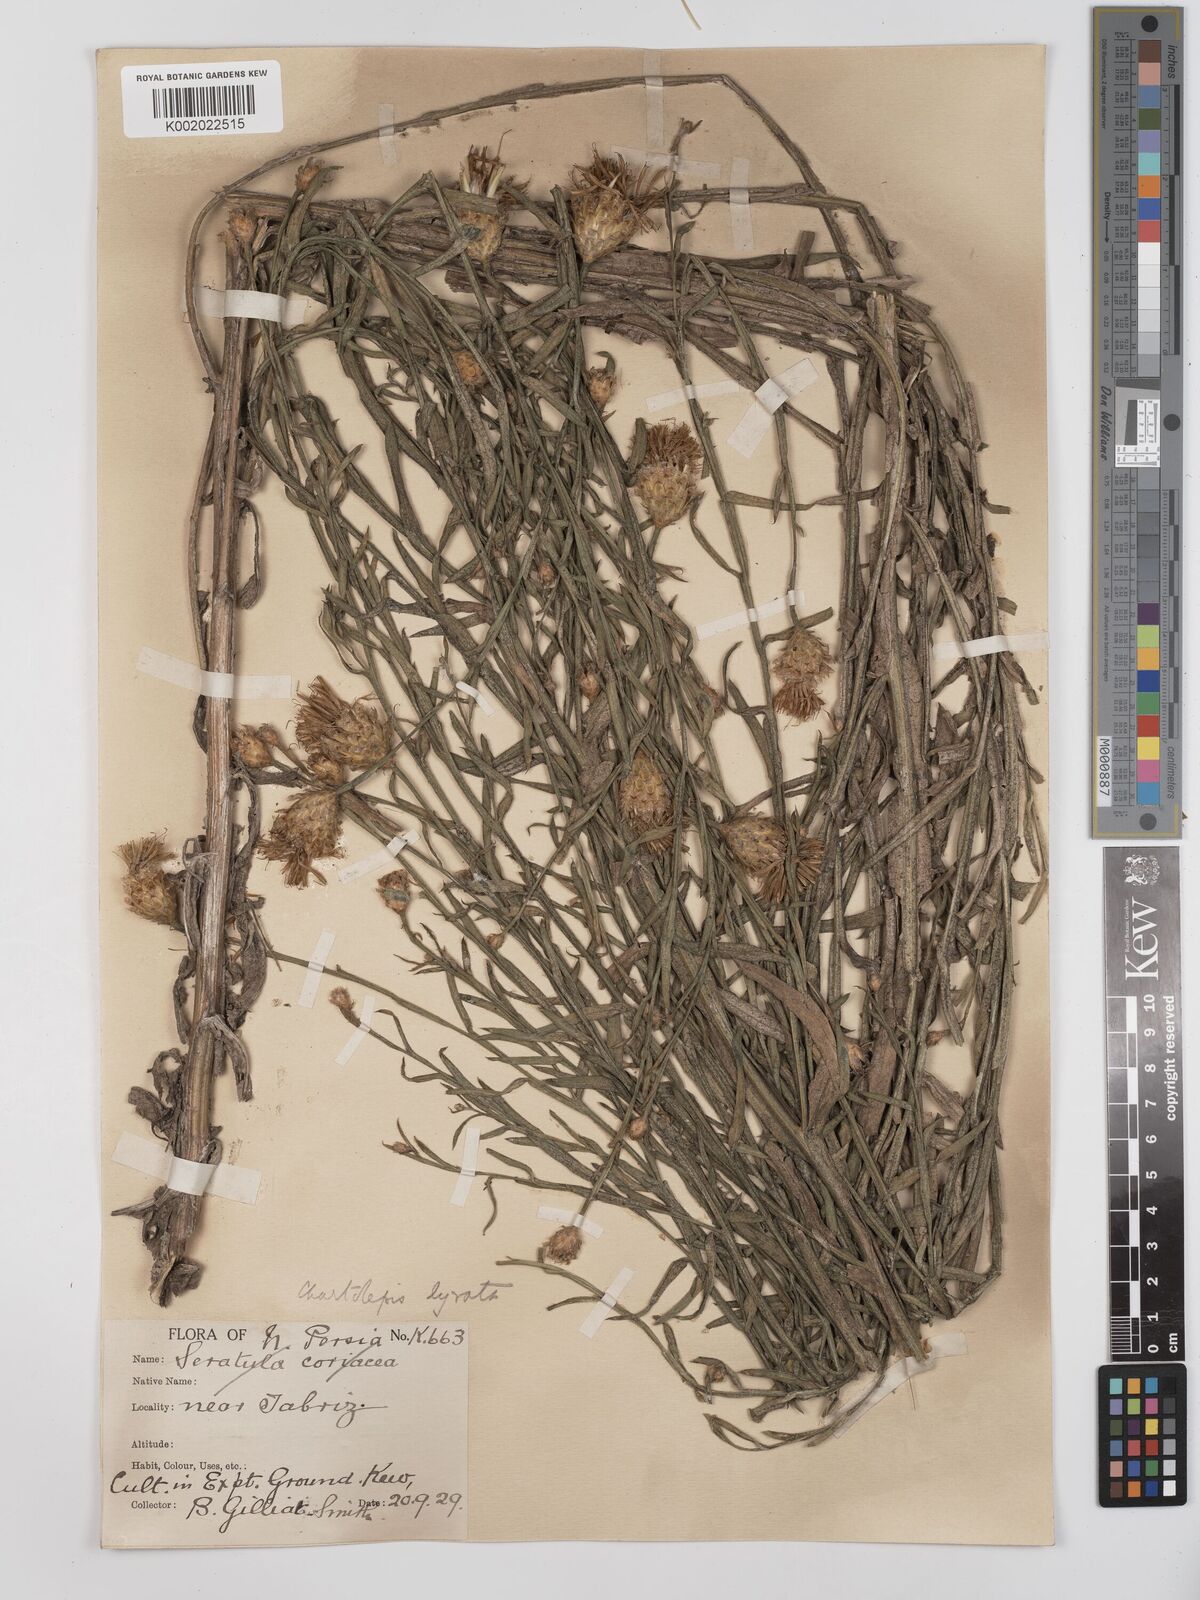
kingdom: Plantae
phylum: Tracheophyta
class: Magnoliopsida
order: Asterales
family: Asteraceae
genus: Centaurea
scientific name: Centaurea pterocaula
